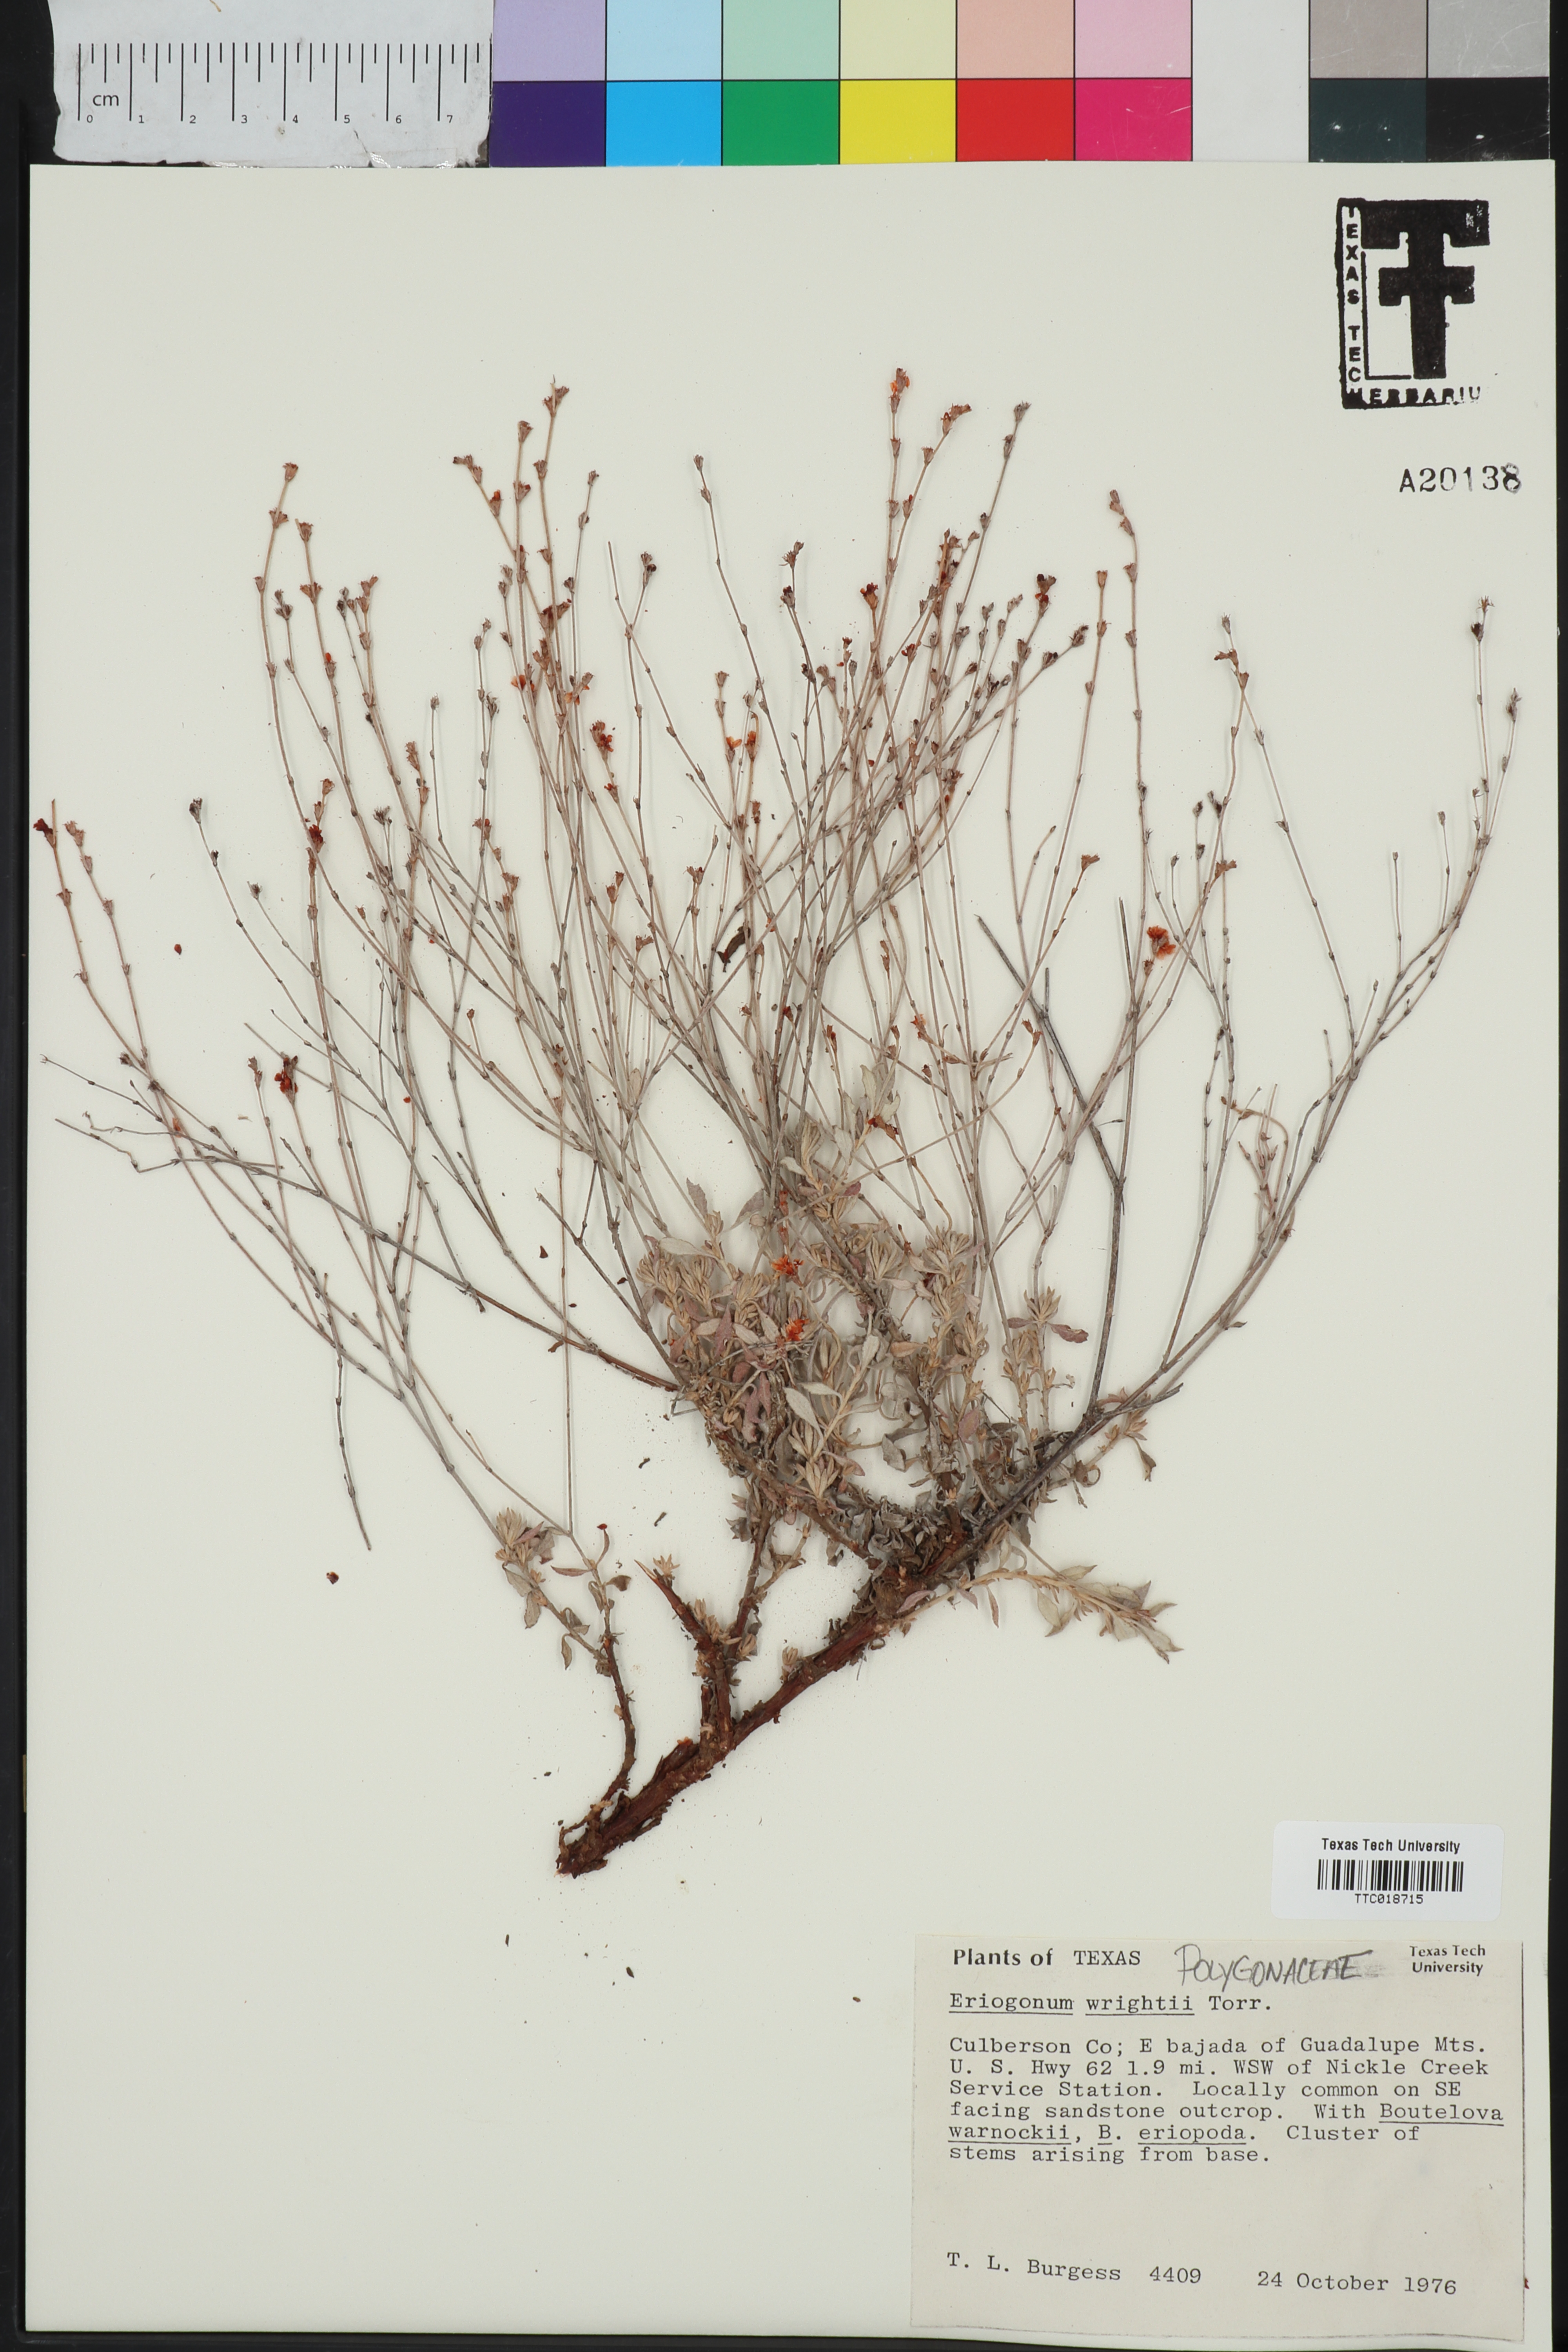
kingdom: Plantae
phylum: Tracheophyta
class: Magnoliopsida
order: Caryophyllales
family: Polygonaceae
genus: Eriogonum
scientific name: Eriogonum wrightii
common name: Bastard-sage
